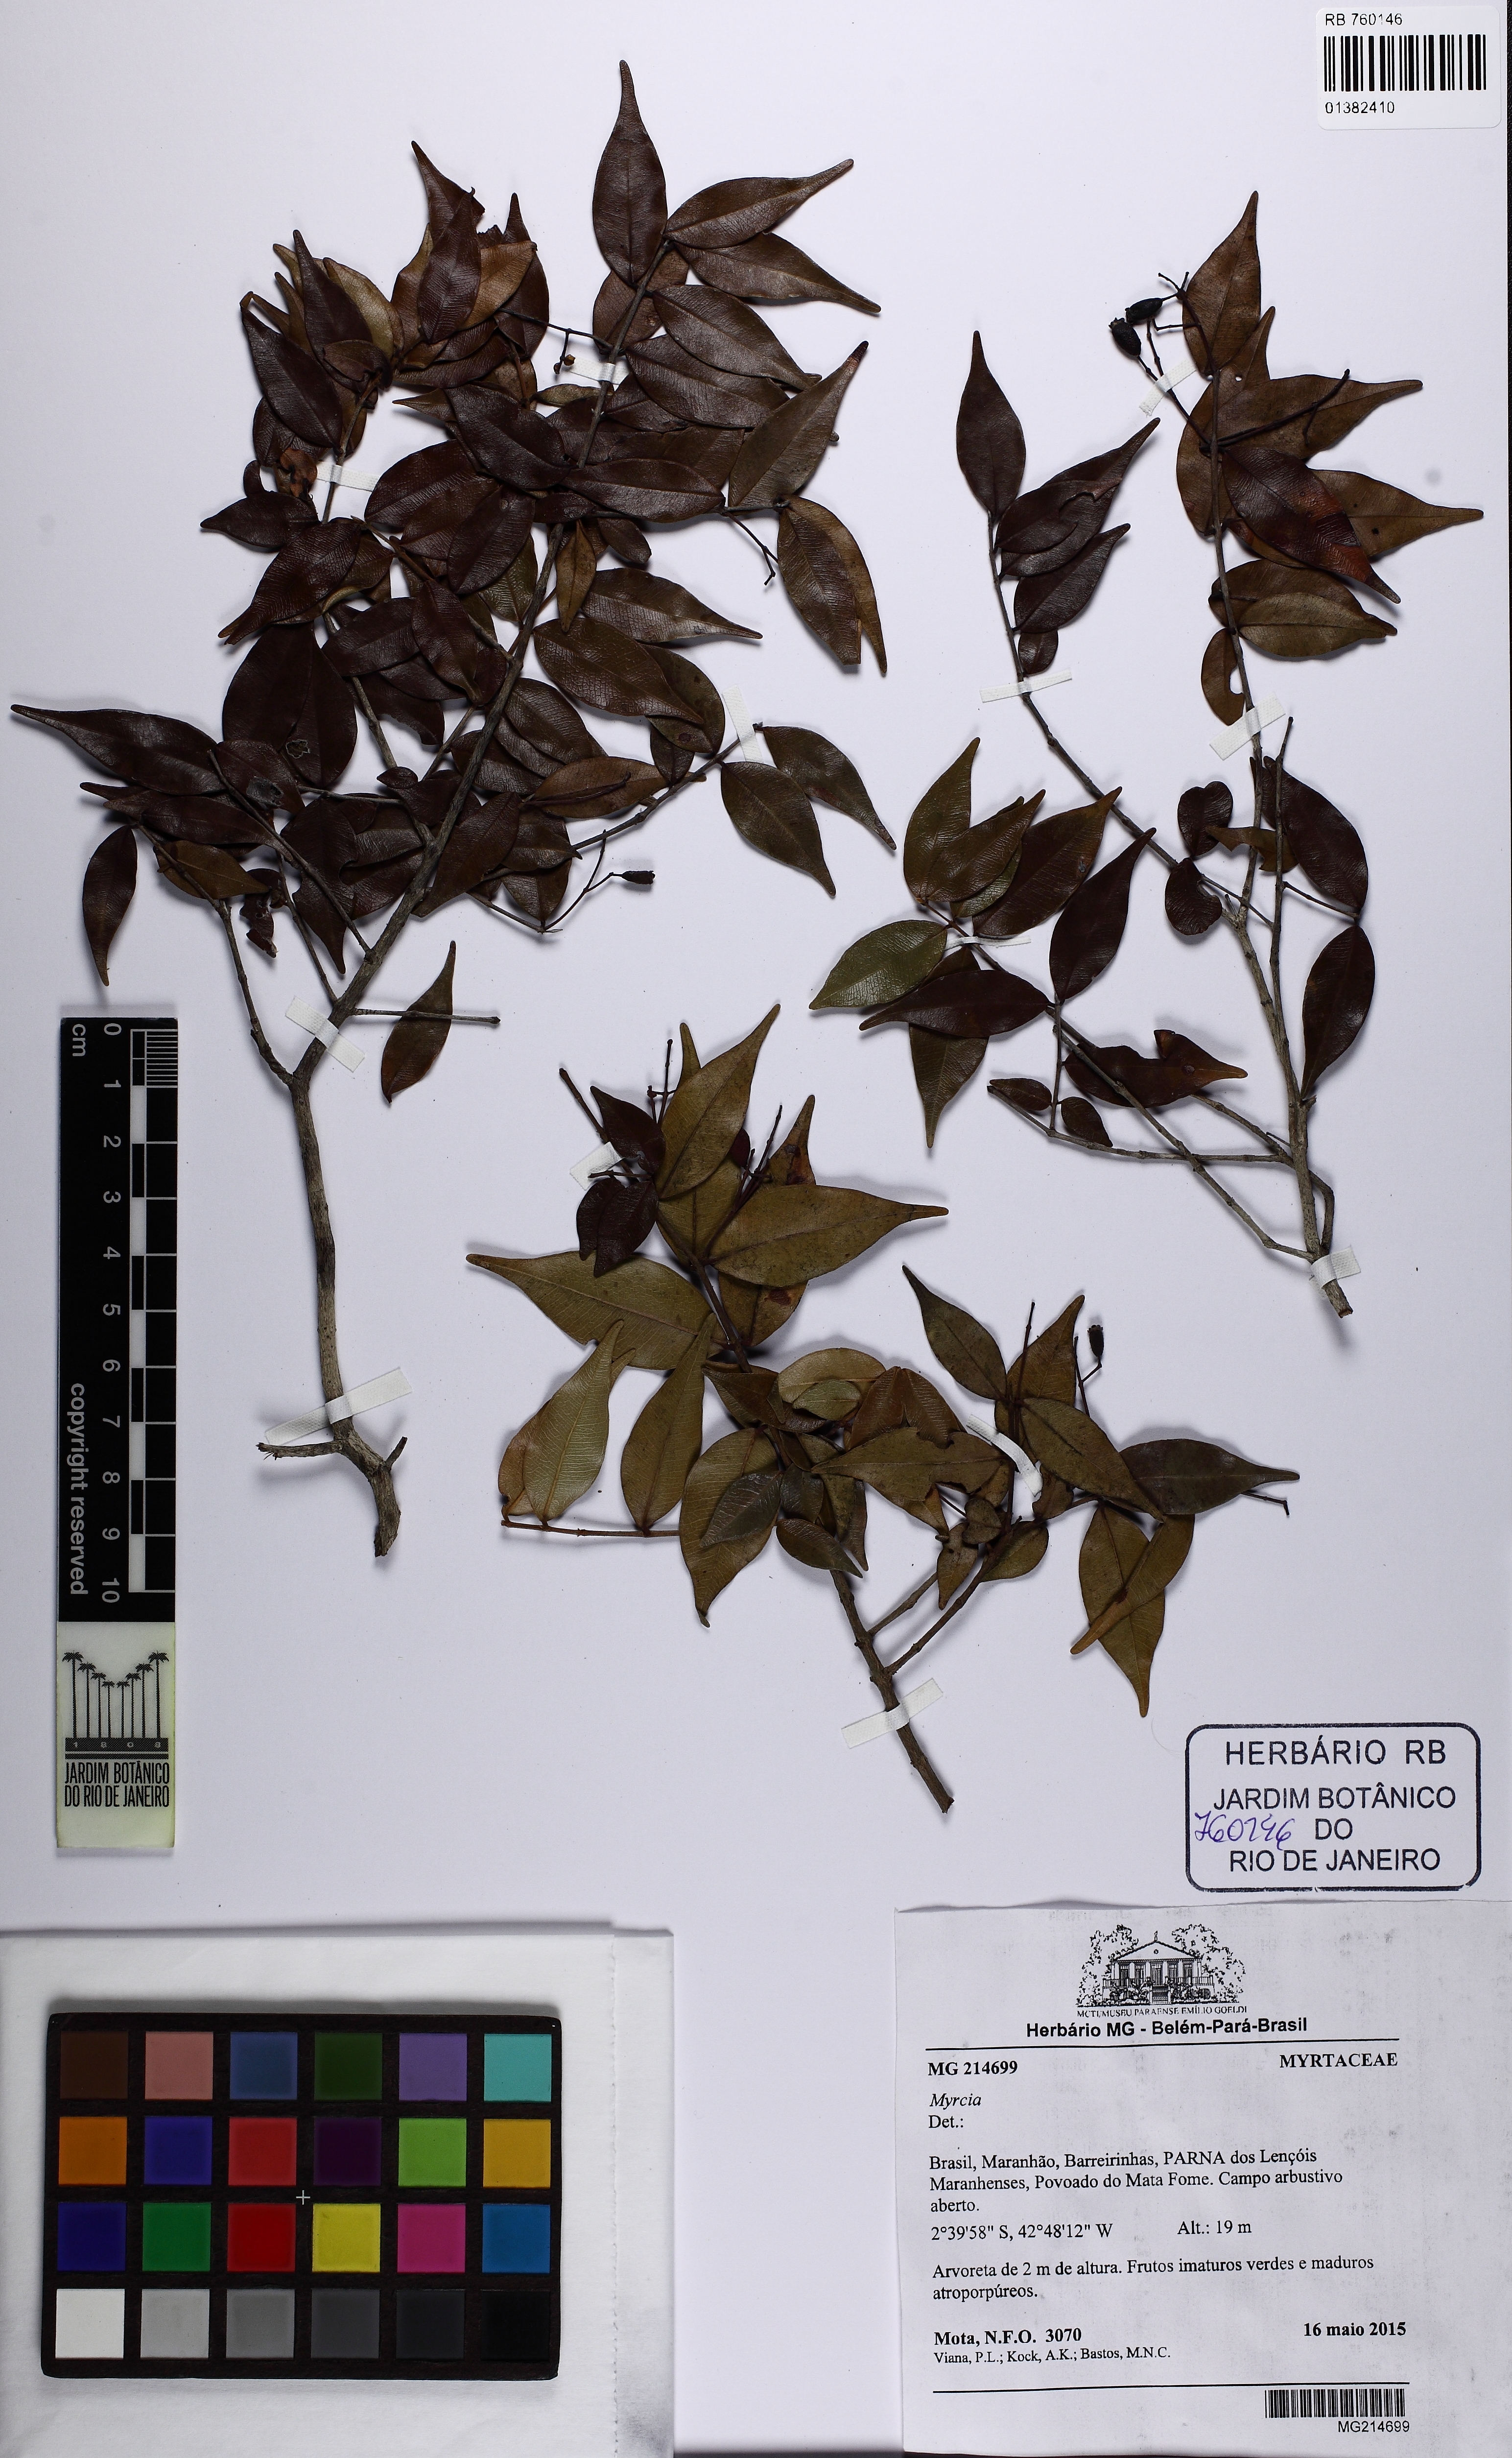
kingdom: Plantae
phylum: Tracheophyta
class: Magnoliopsida
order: Myrtales
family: Myrtaceae
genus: Myrcia
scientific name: Myrcia
